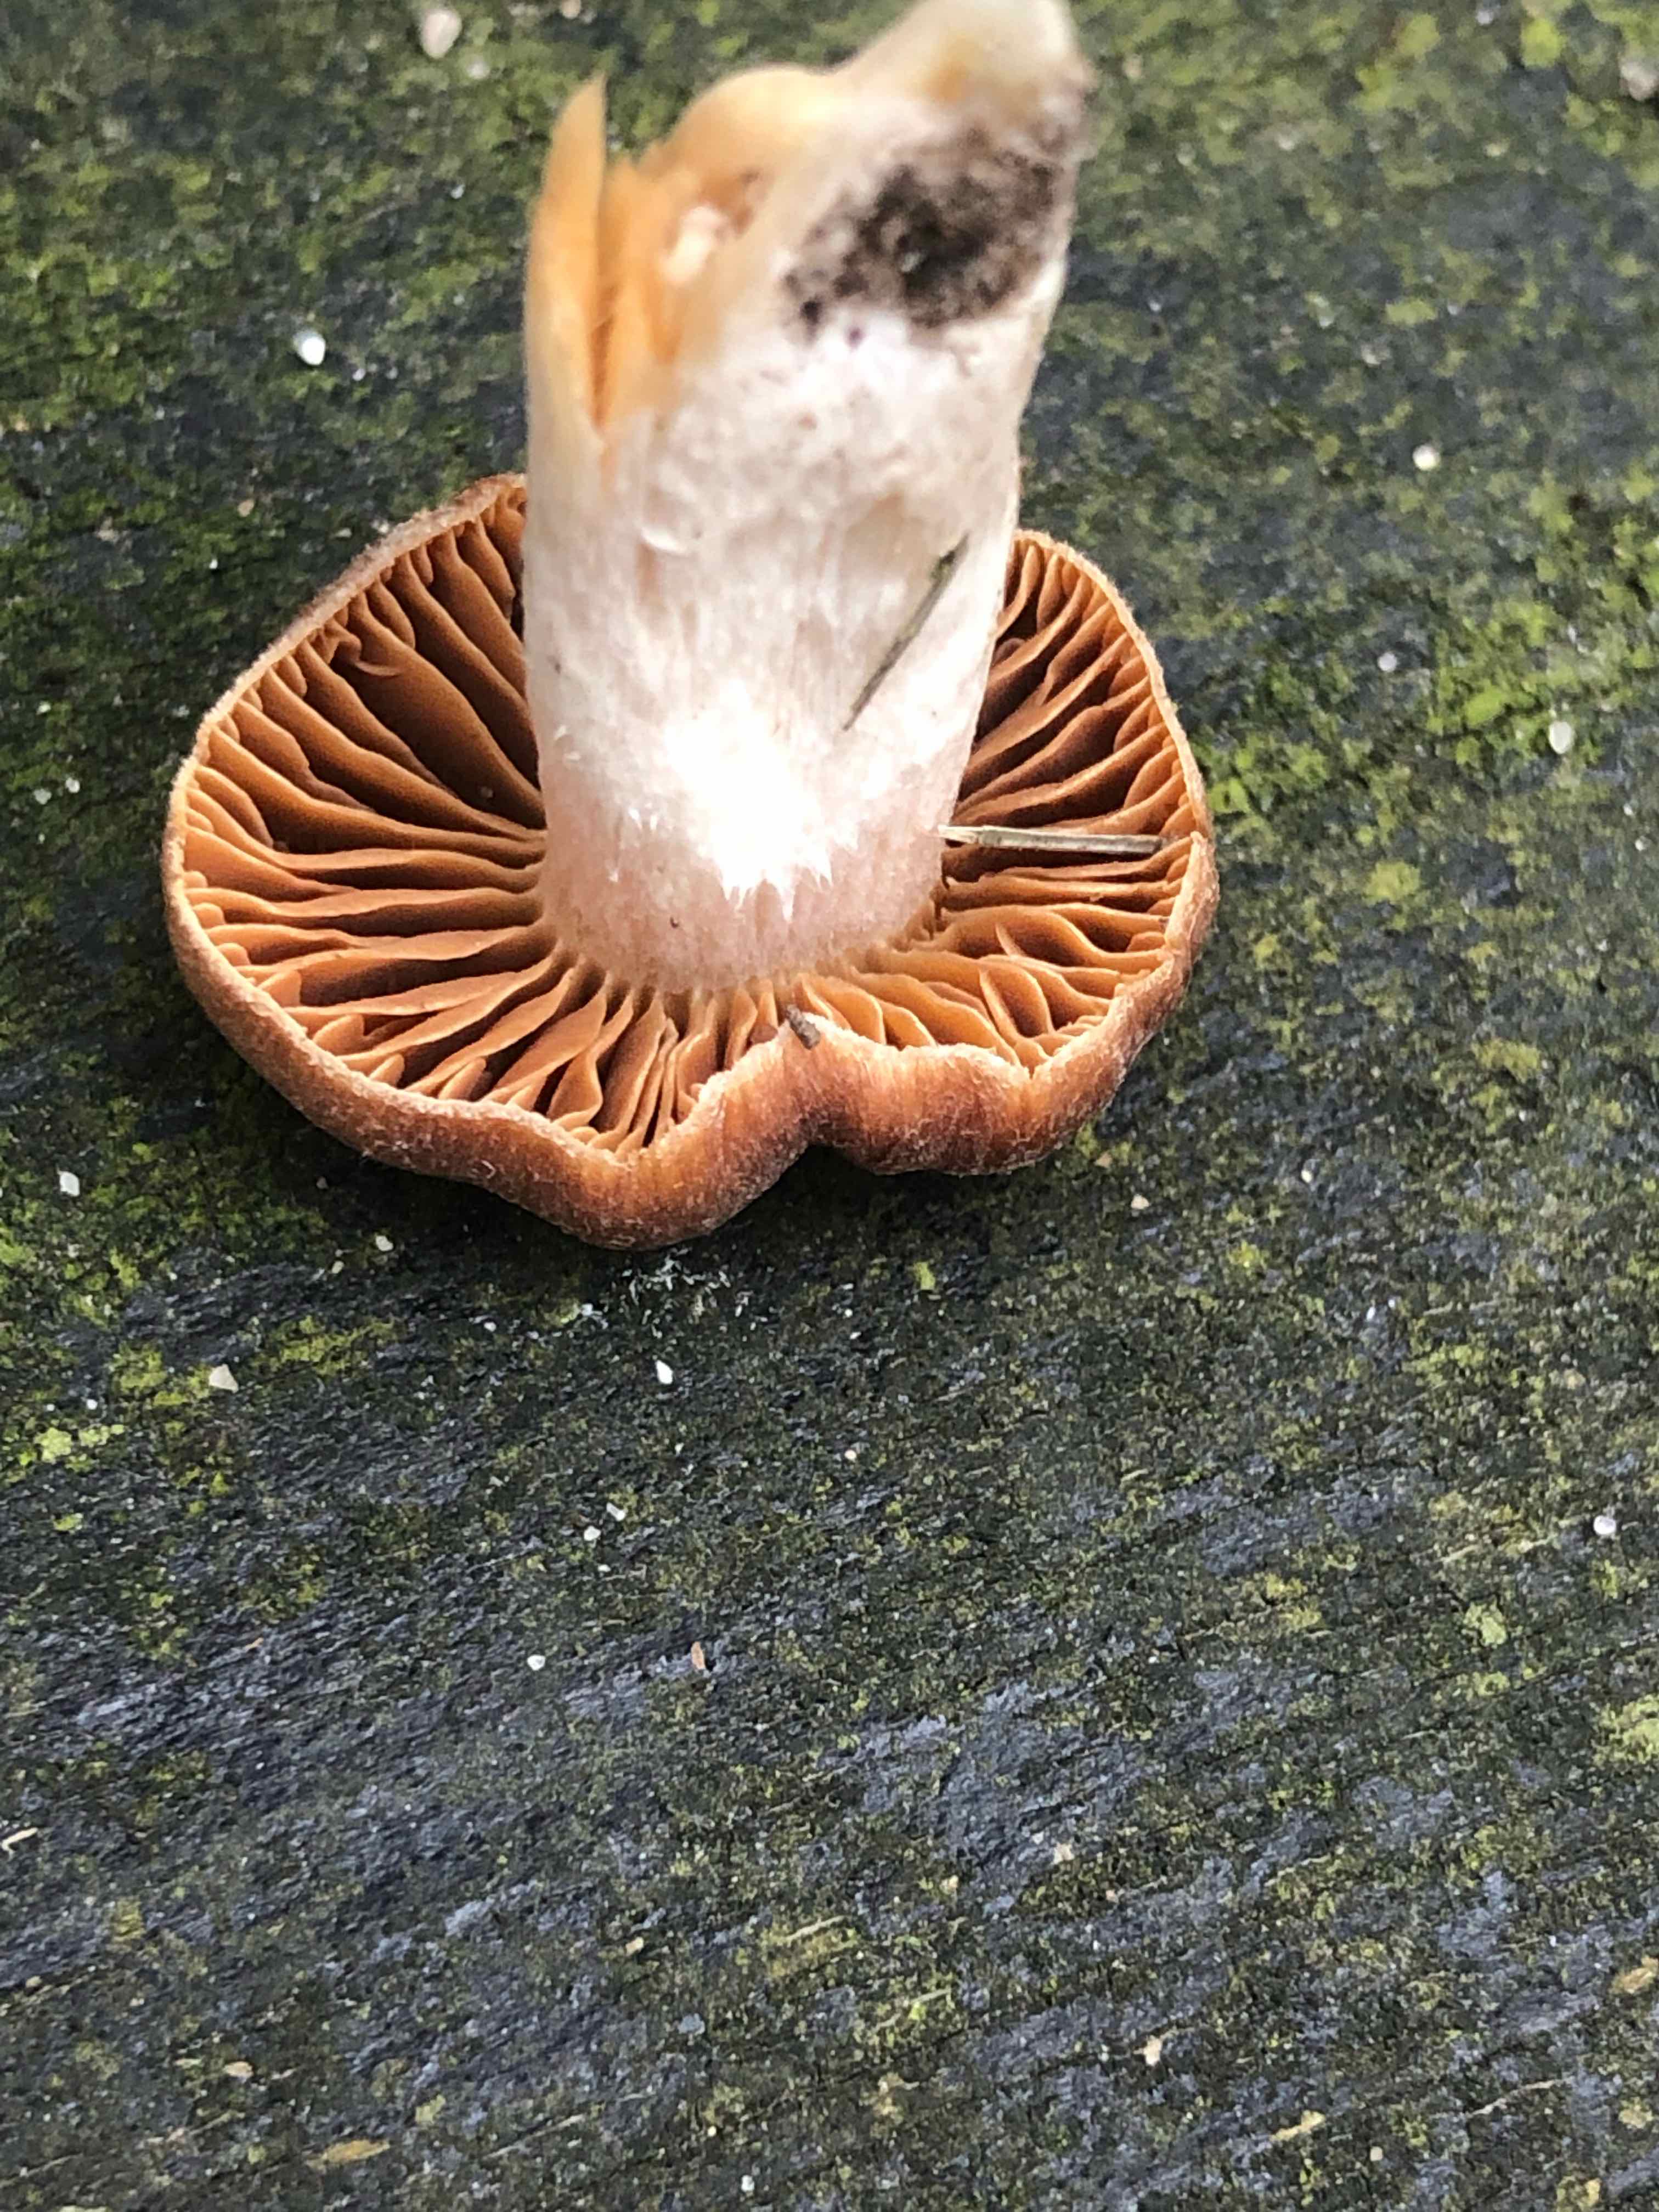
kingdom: Fungi
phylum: Basidiomycota
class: Agaricomycetes
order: Agaricales
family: Cortinariaceae
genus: Cortinarius
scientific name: Cortinarius
